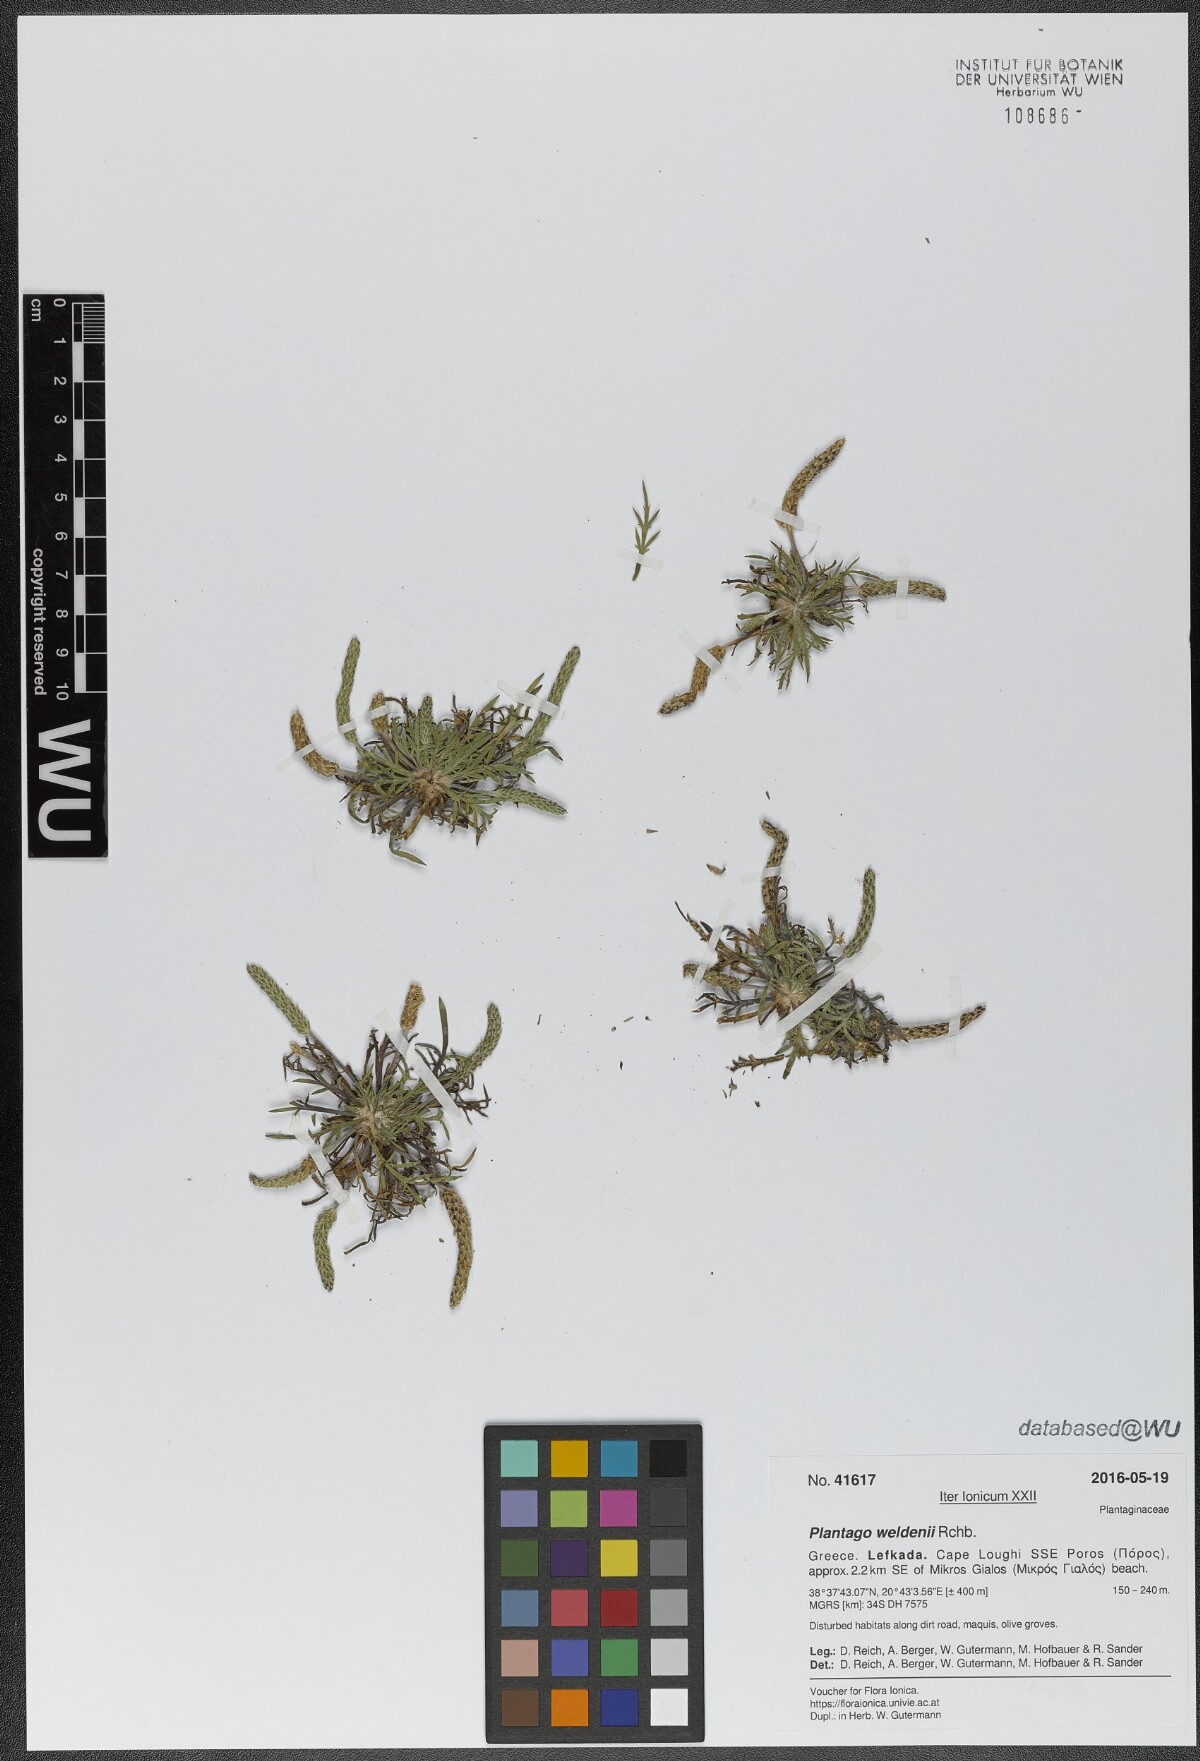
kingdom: Plantae
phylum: Tracheophyta
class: Magnoliopsida
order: Lamiales
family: Plantaginaceae
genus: Plantago
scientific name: Plantago weldenii
